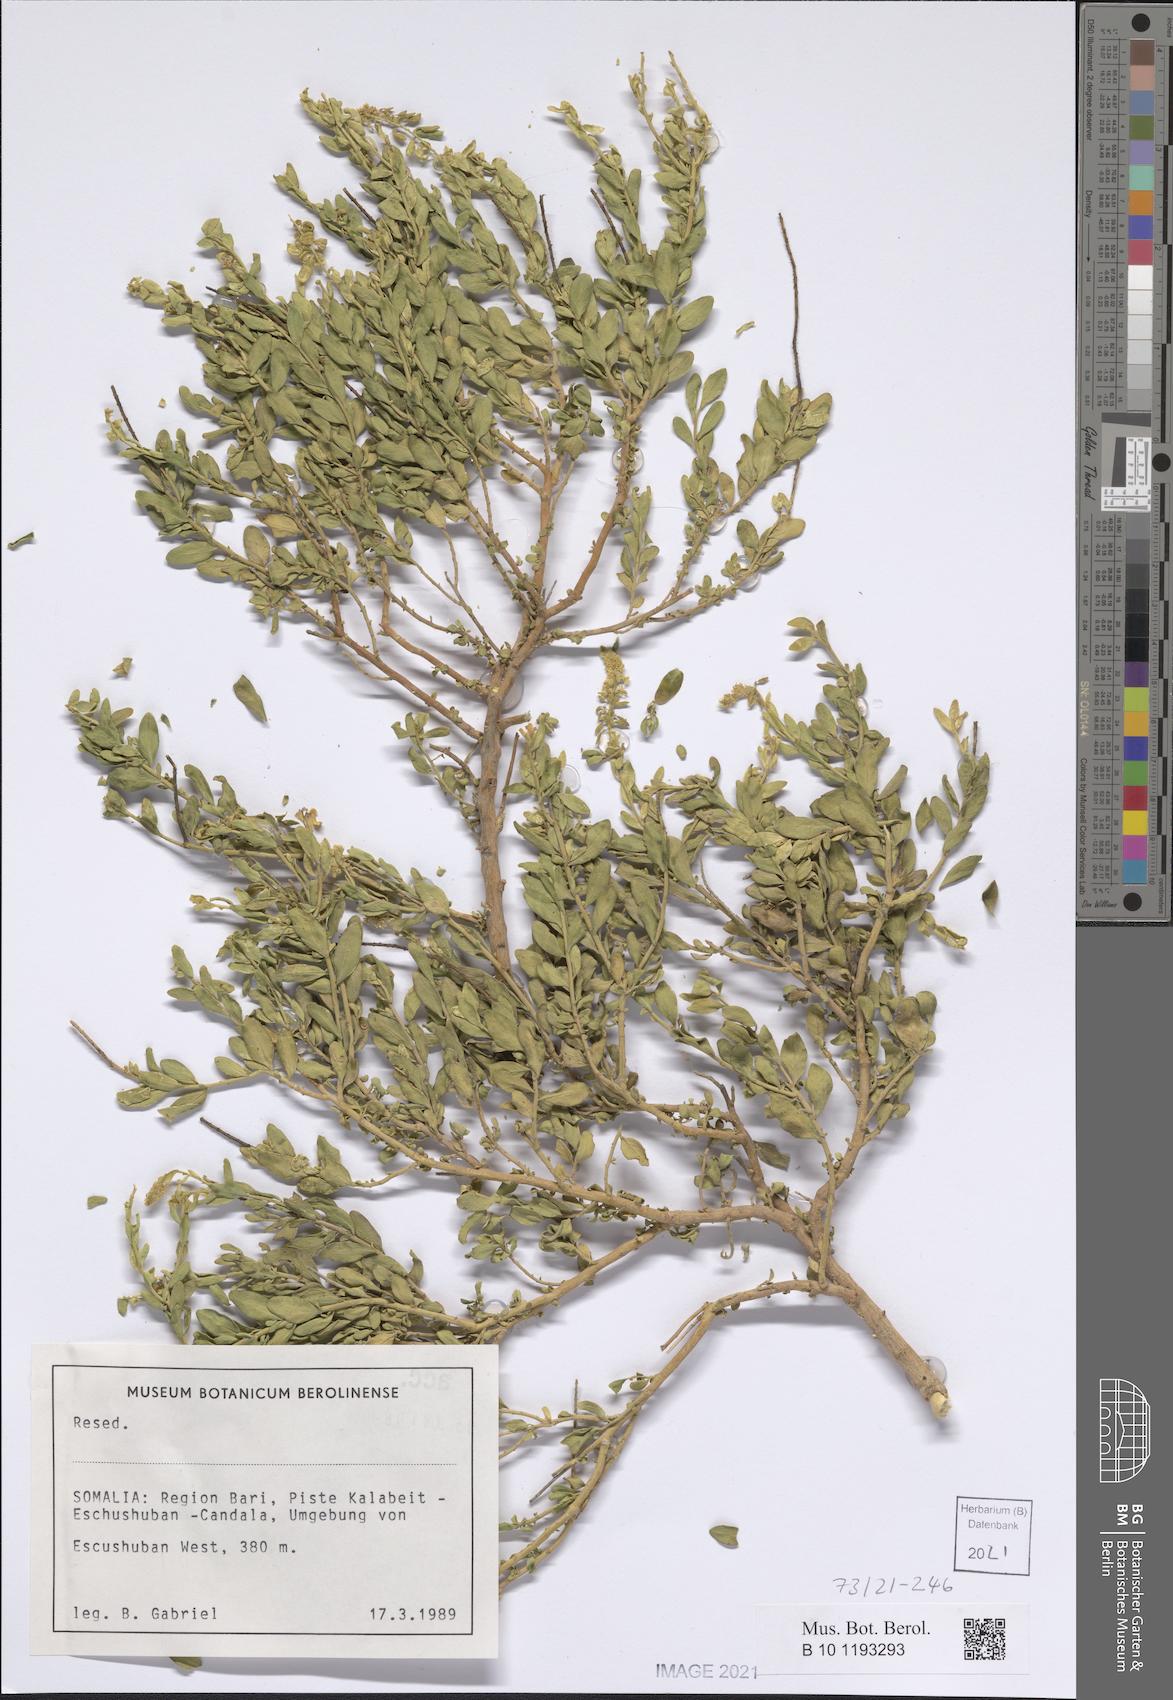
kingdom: Plantae
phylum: Tracheophyta
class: Magnoliopsida
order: Brassicales
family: Resedaceae
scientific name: Resedaceae
